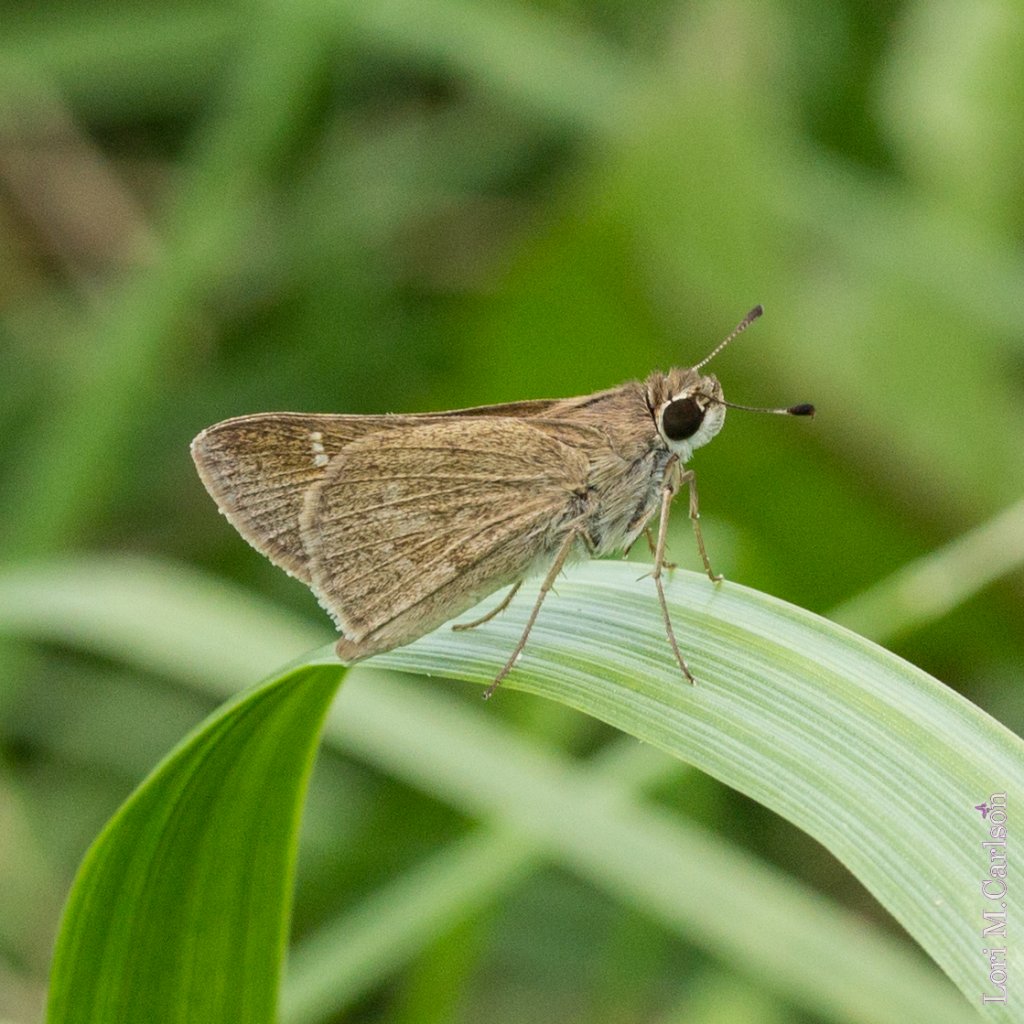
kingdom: Animalia
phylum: Arthropoda
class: Insecta
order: Lepidoptera
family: Hesperiidae
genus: Lerodea
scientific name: Lerodea eufala
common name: Eufala Skipper
